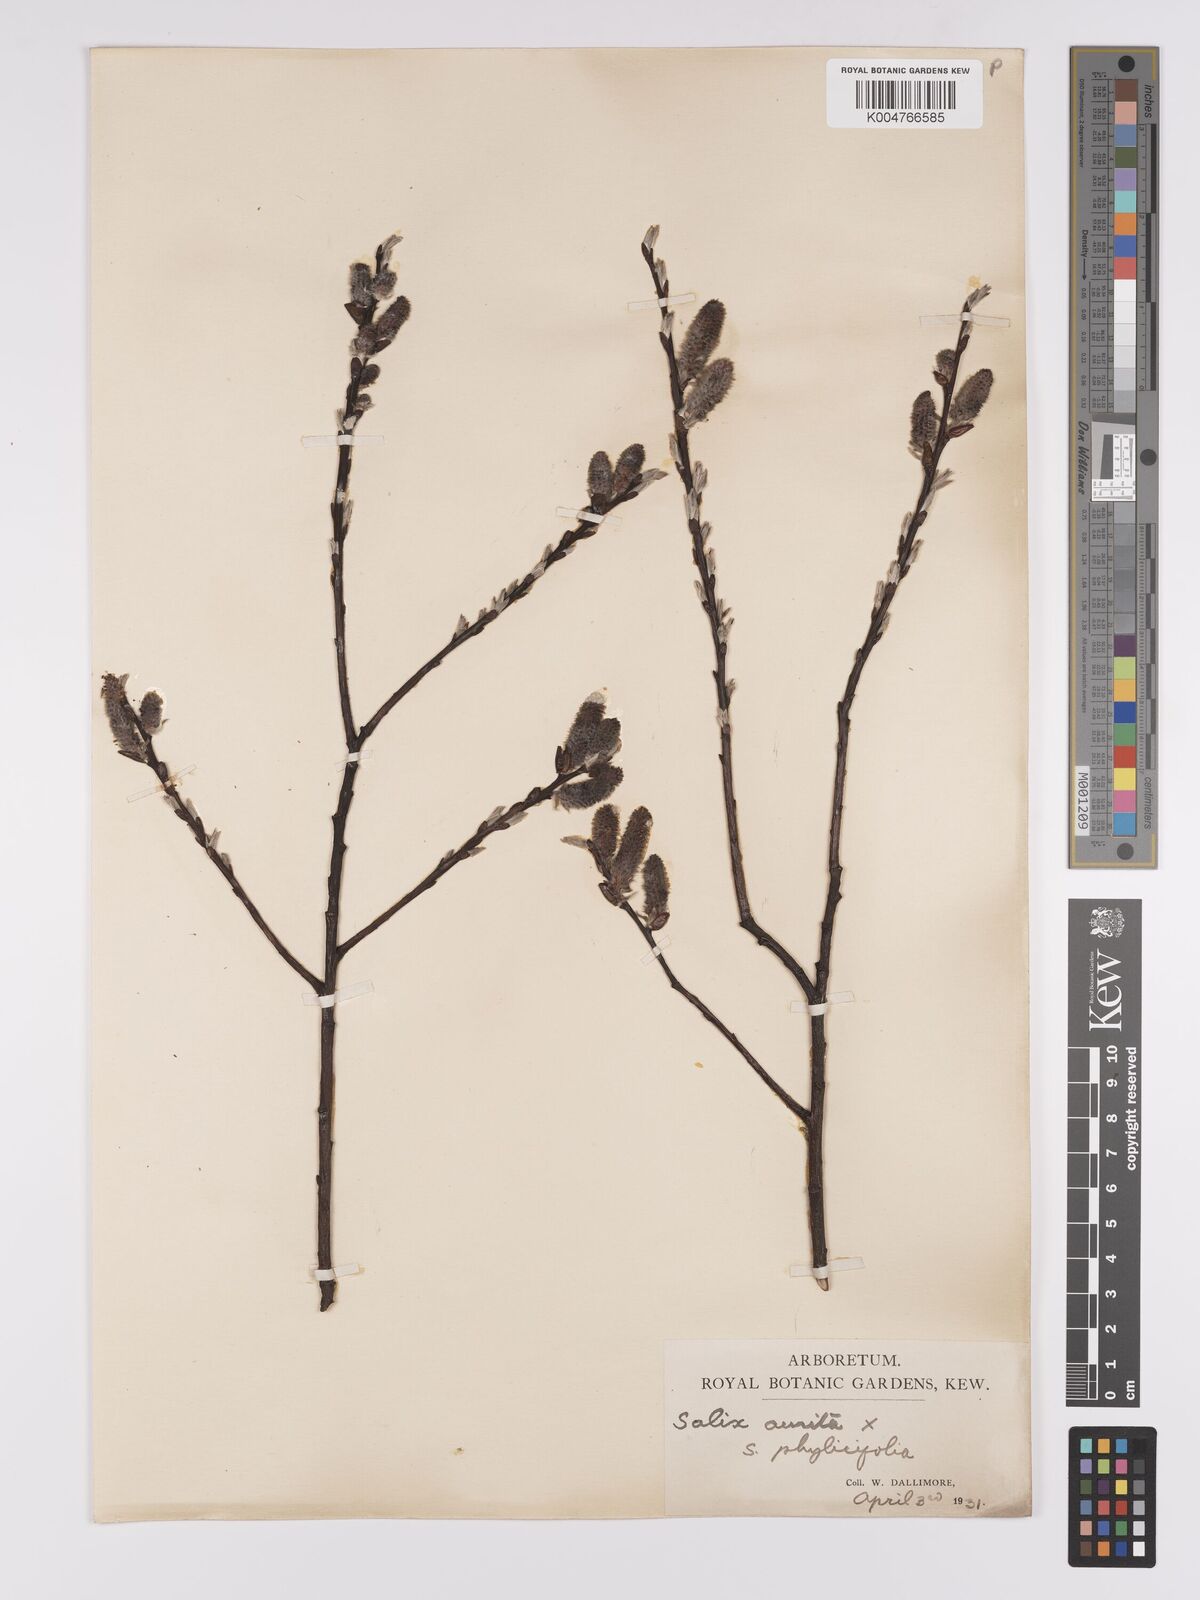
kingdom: Plantae
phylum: Tracheophyta
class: Magnoliopsida
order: Malpighiales
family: Salicaceae
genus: Salix
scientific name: Salix
